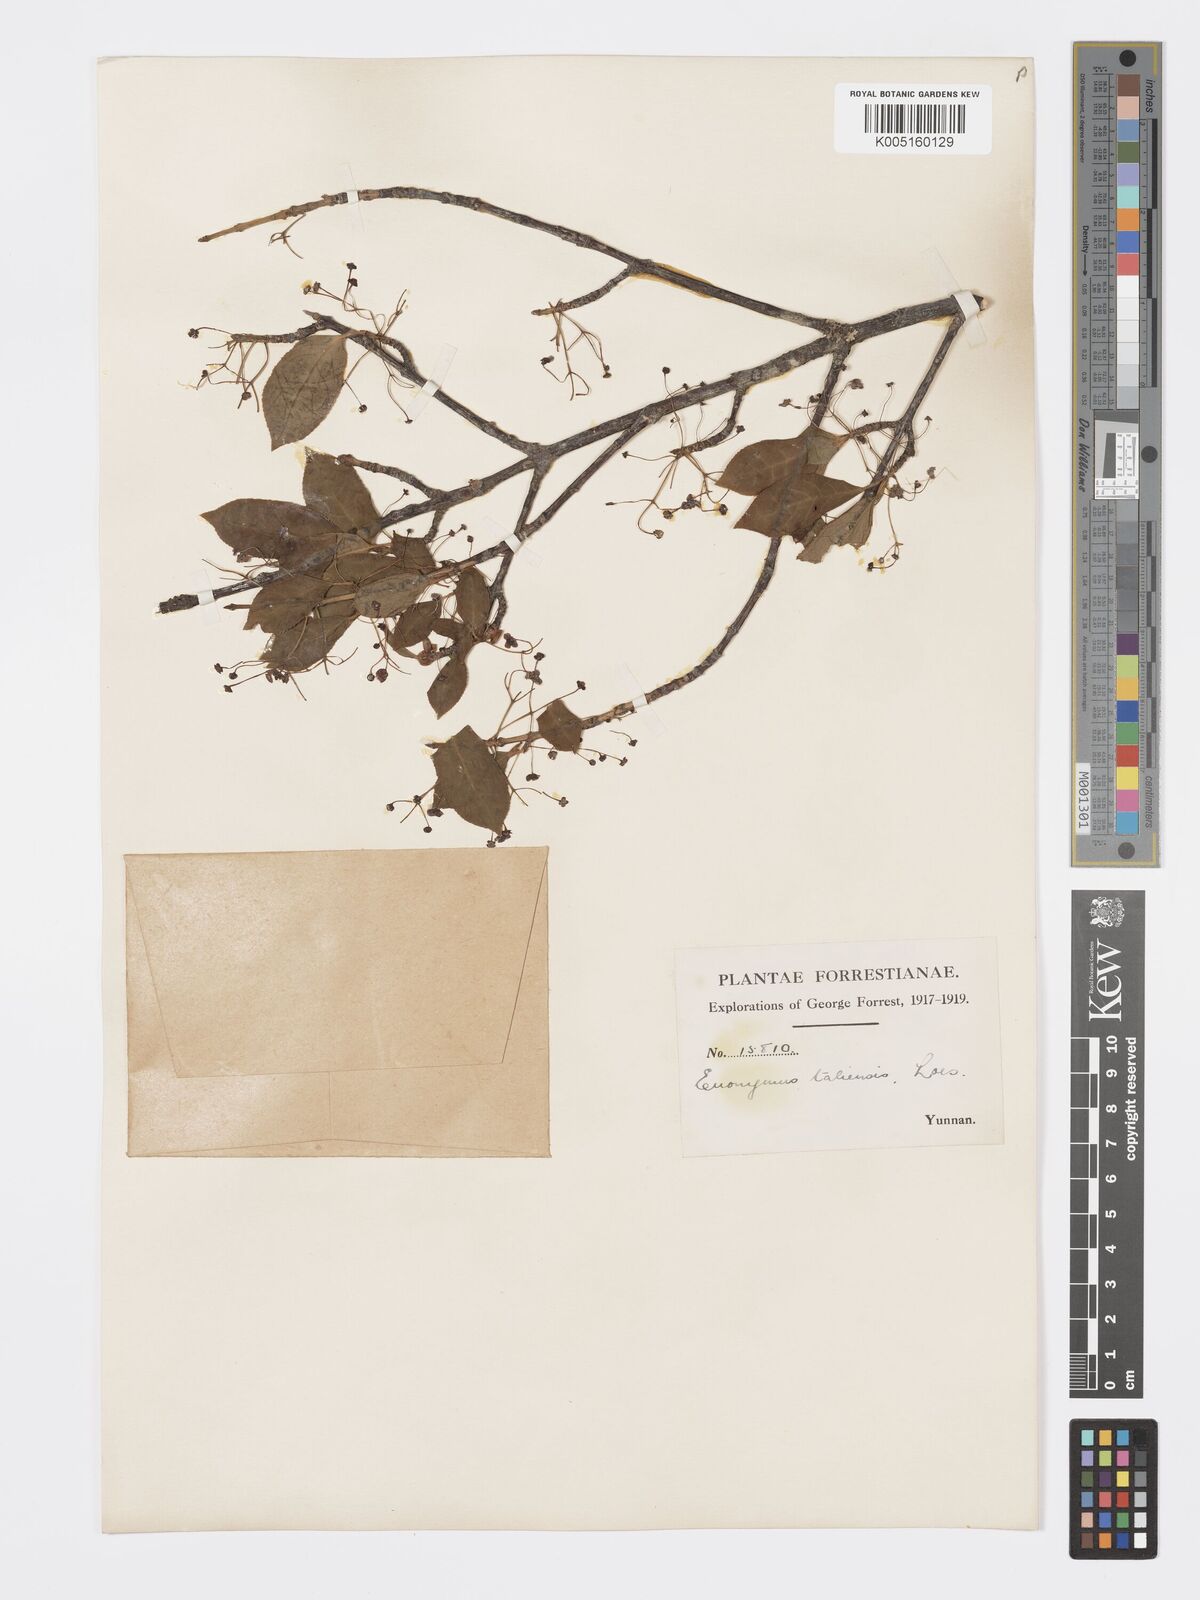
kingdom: Plantae
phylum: Tracheophyta
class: Magnoliopsida
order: Celastrales
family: Celastraceae
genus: Euonymus
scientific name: Euonymus amygdalifolius
